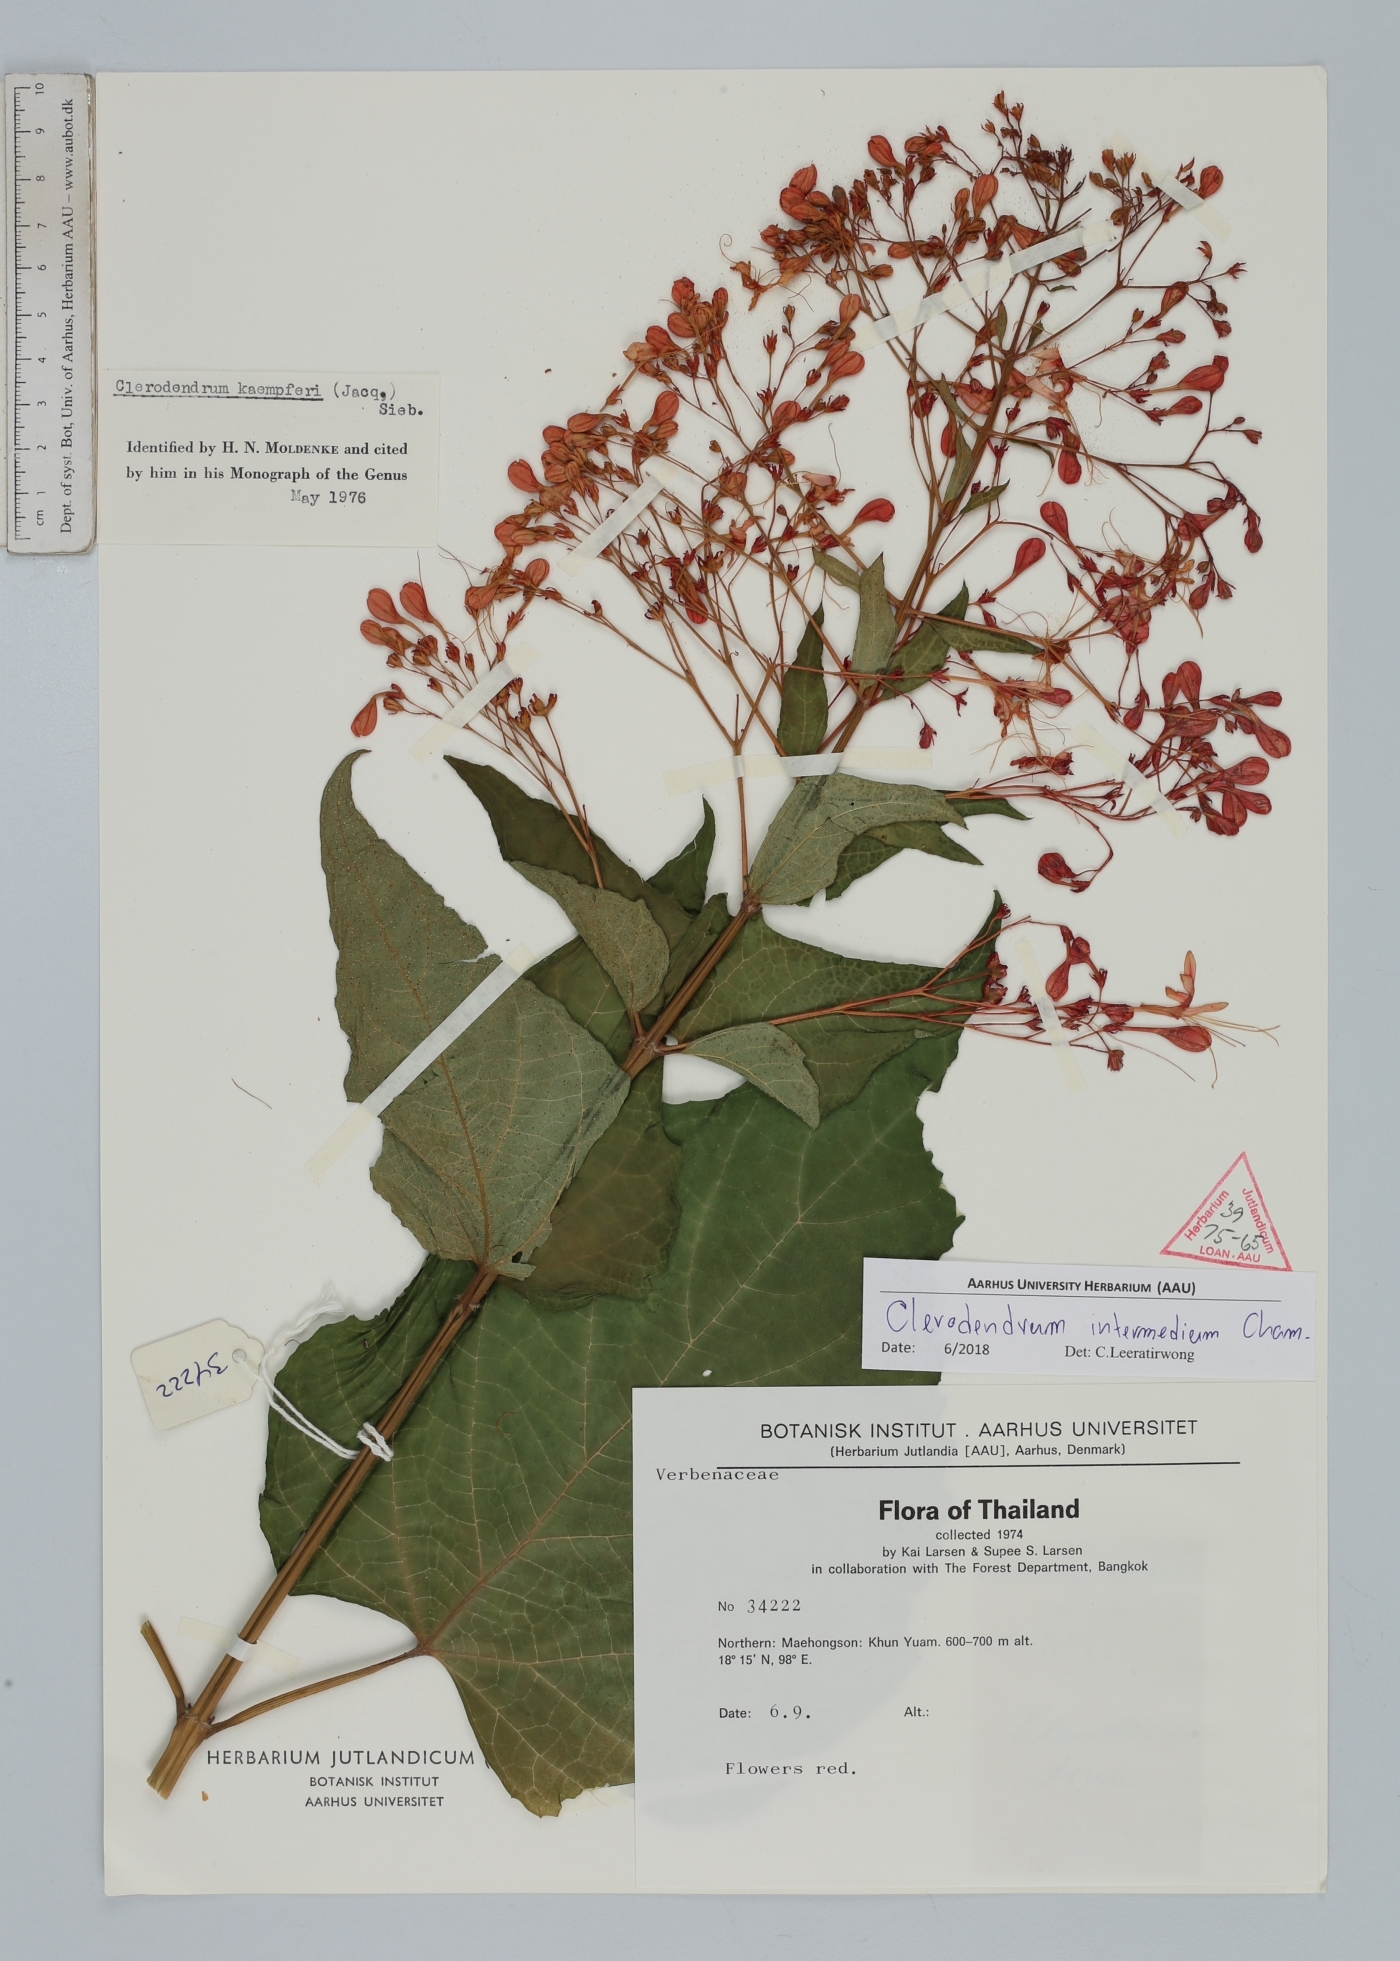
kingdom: Plantae
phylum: Tracheophyta
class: Magnoliopsida
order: Lamiales
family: Lamiaceae
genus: Clerodendrum
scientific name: Clerodendrum intermedium
